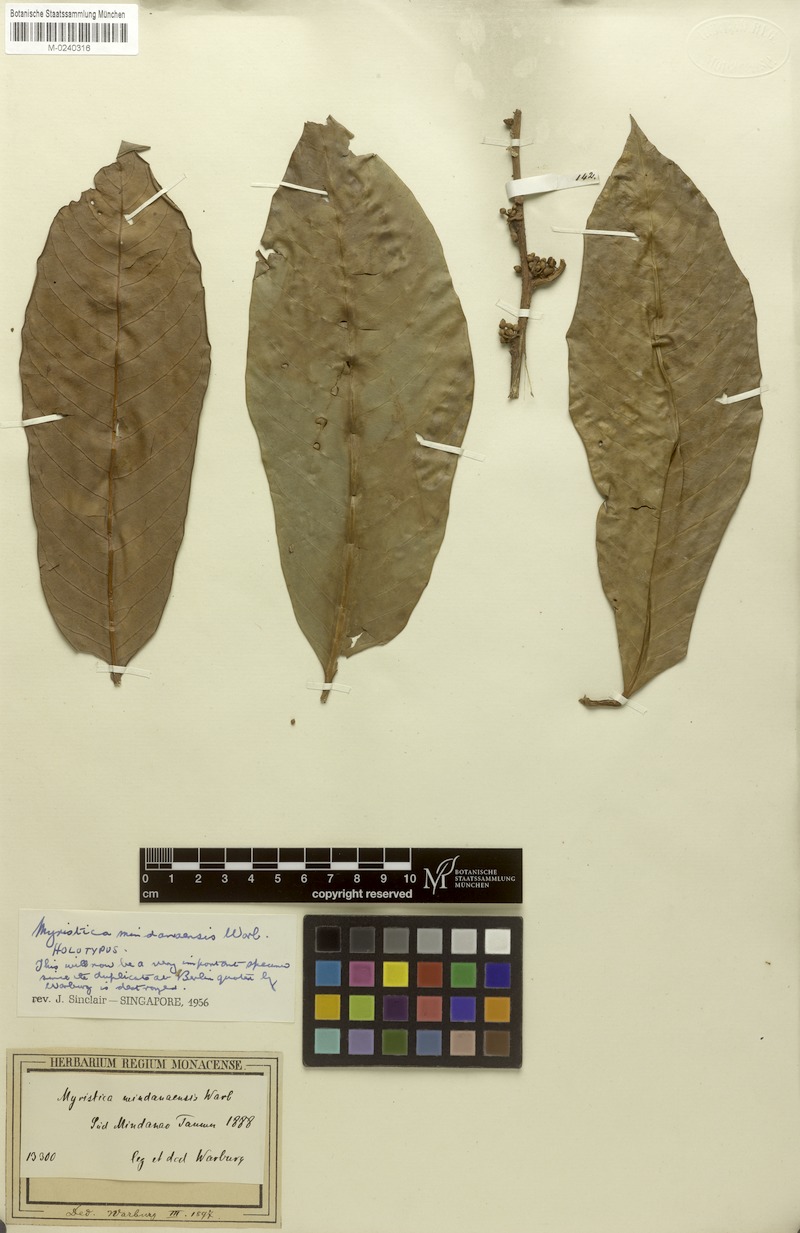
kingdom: Plantae
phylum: Tracheophyta
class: Magnoliopsida
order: Magnoliales
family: Myristicaceae
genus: Myristica
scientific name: Myristica mindanaensis
